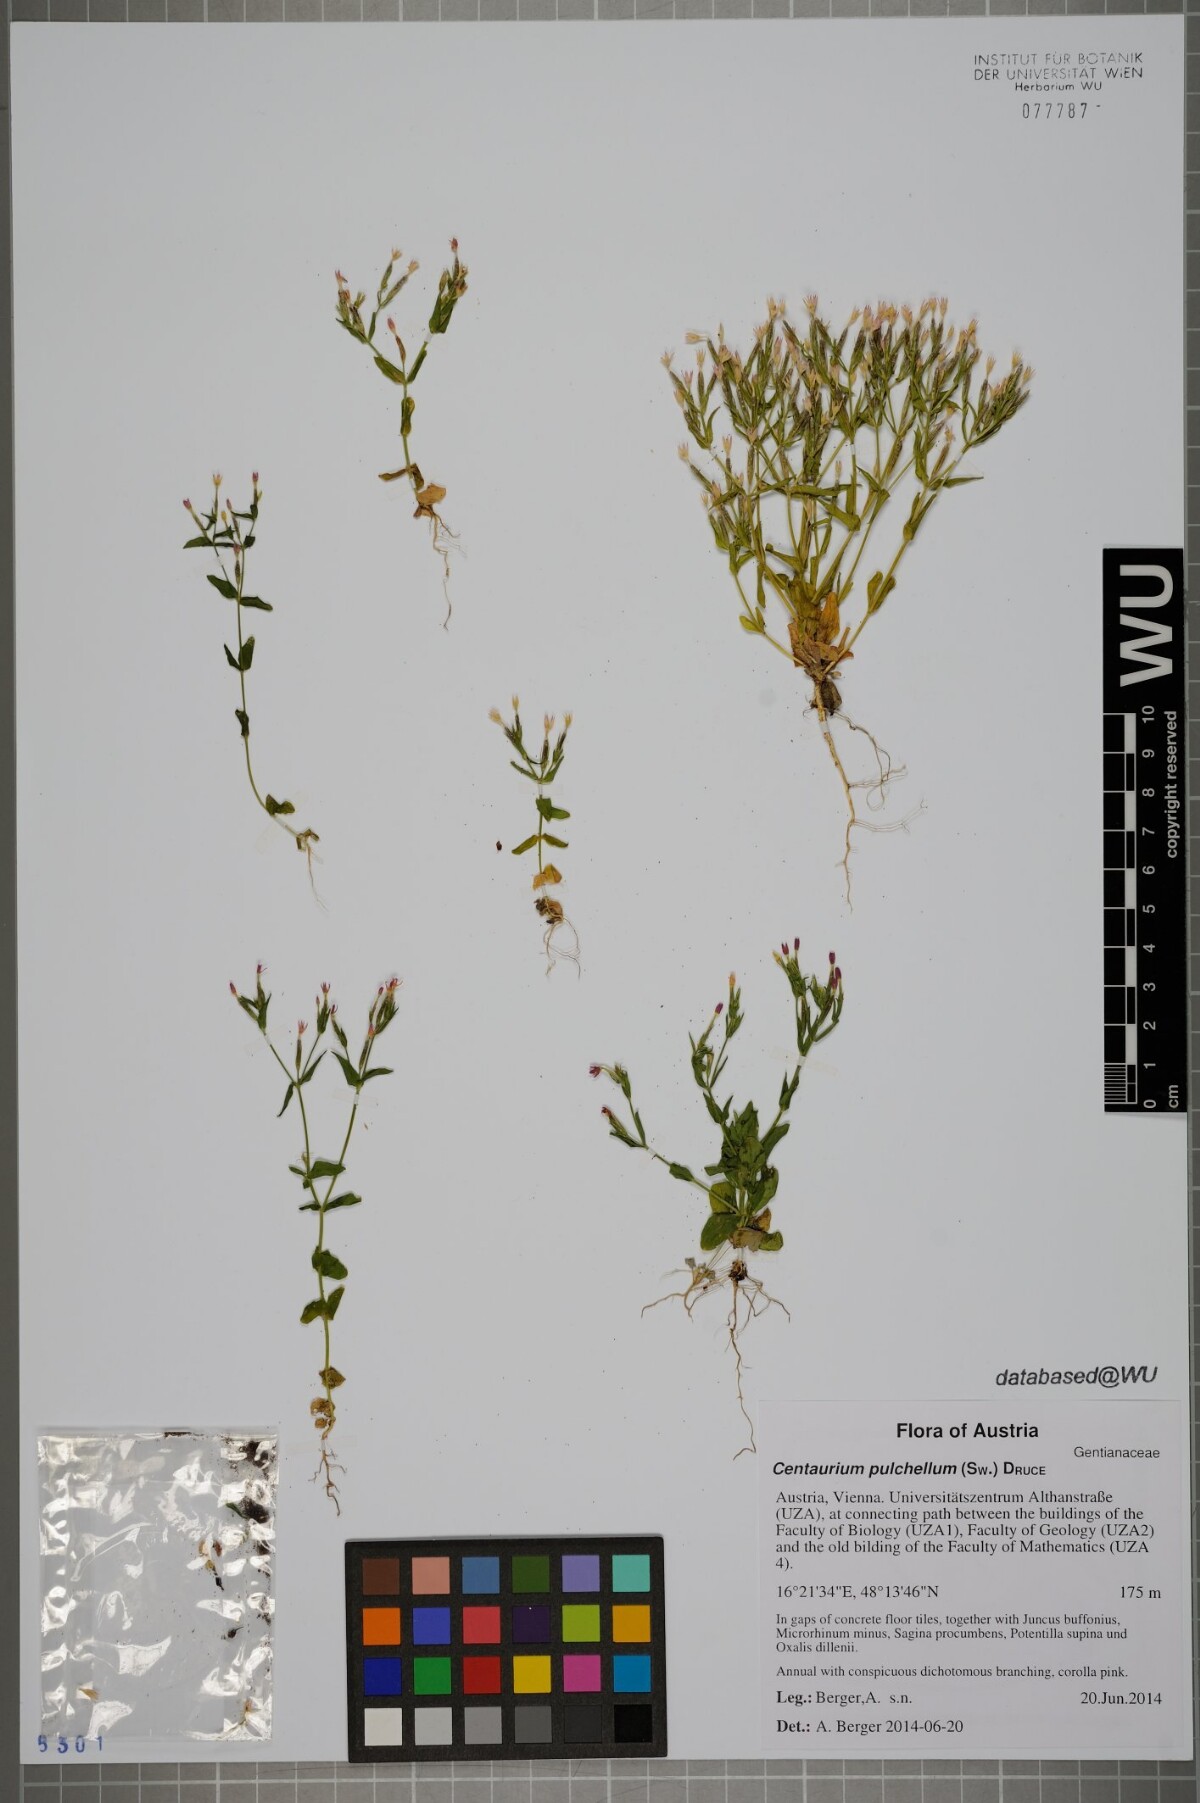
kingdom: Plantae
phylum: Tracheophyta
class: Magnoliopsida
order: Gentianales
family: Gentianaceae
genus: Centaurium
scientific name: Centaurium pulchellum
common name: Lesser centaury
